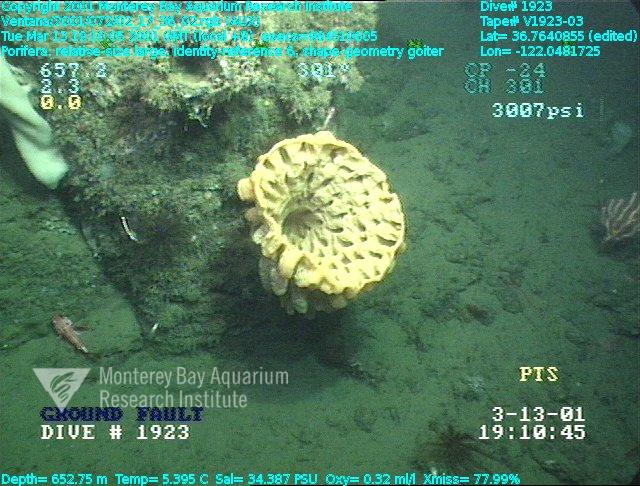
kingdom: Animalia
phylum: Porifera
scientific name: Porifera
